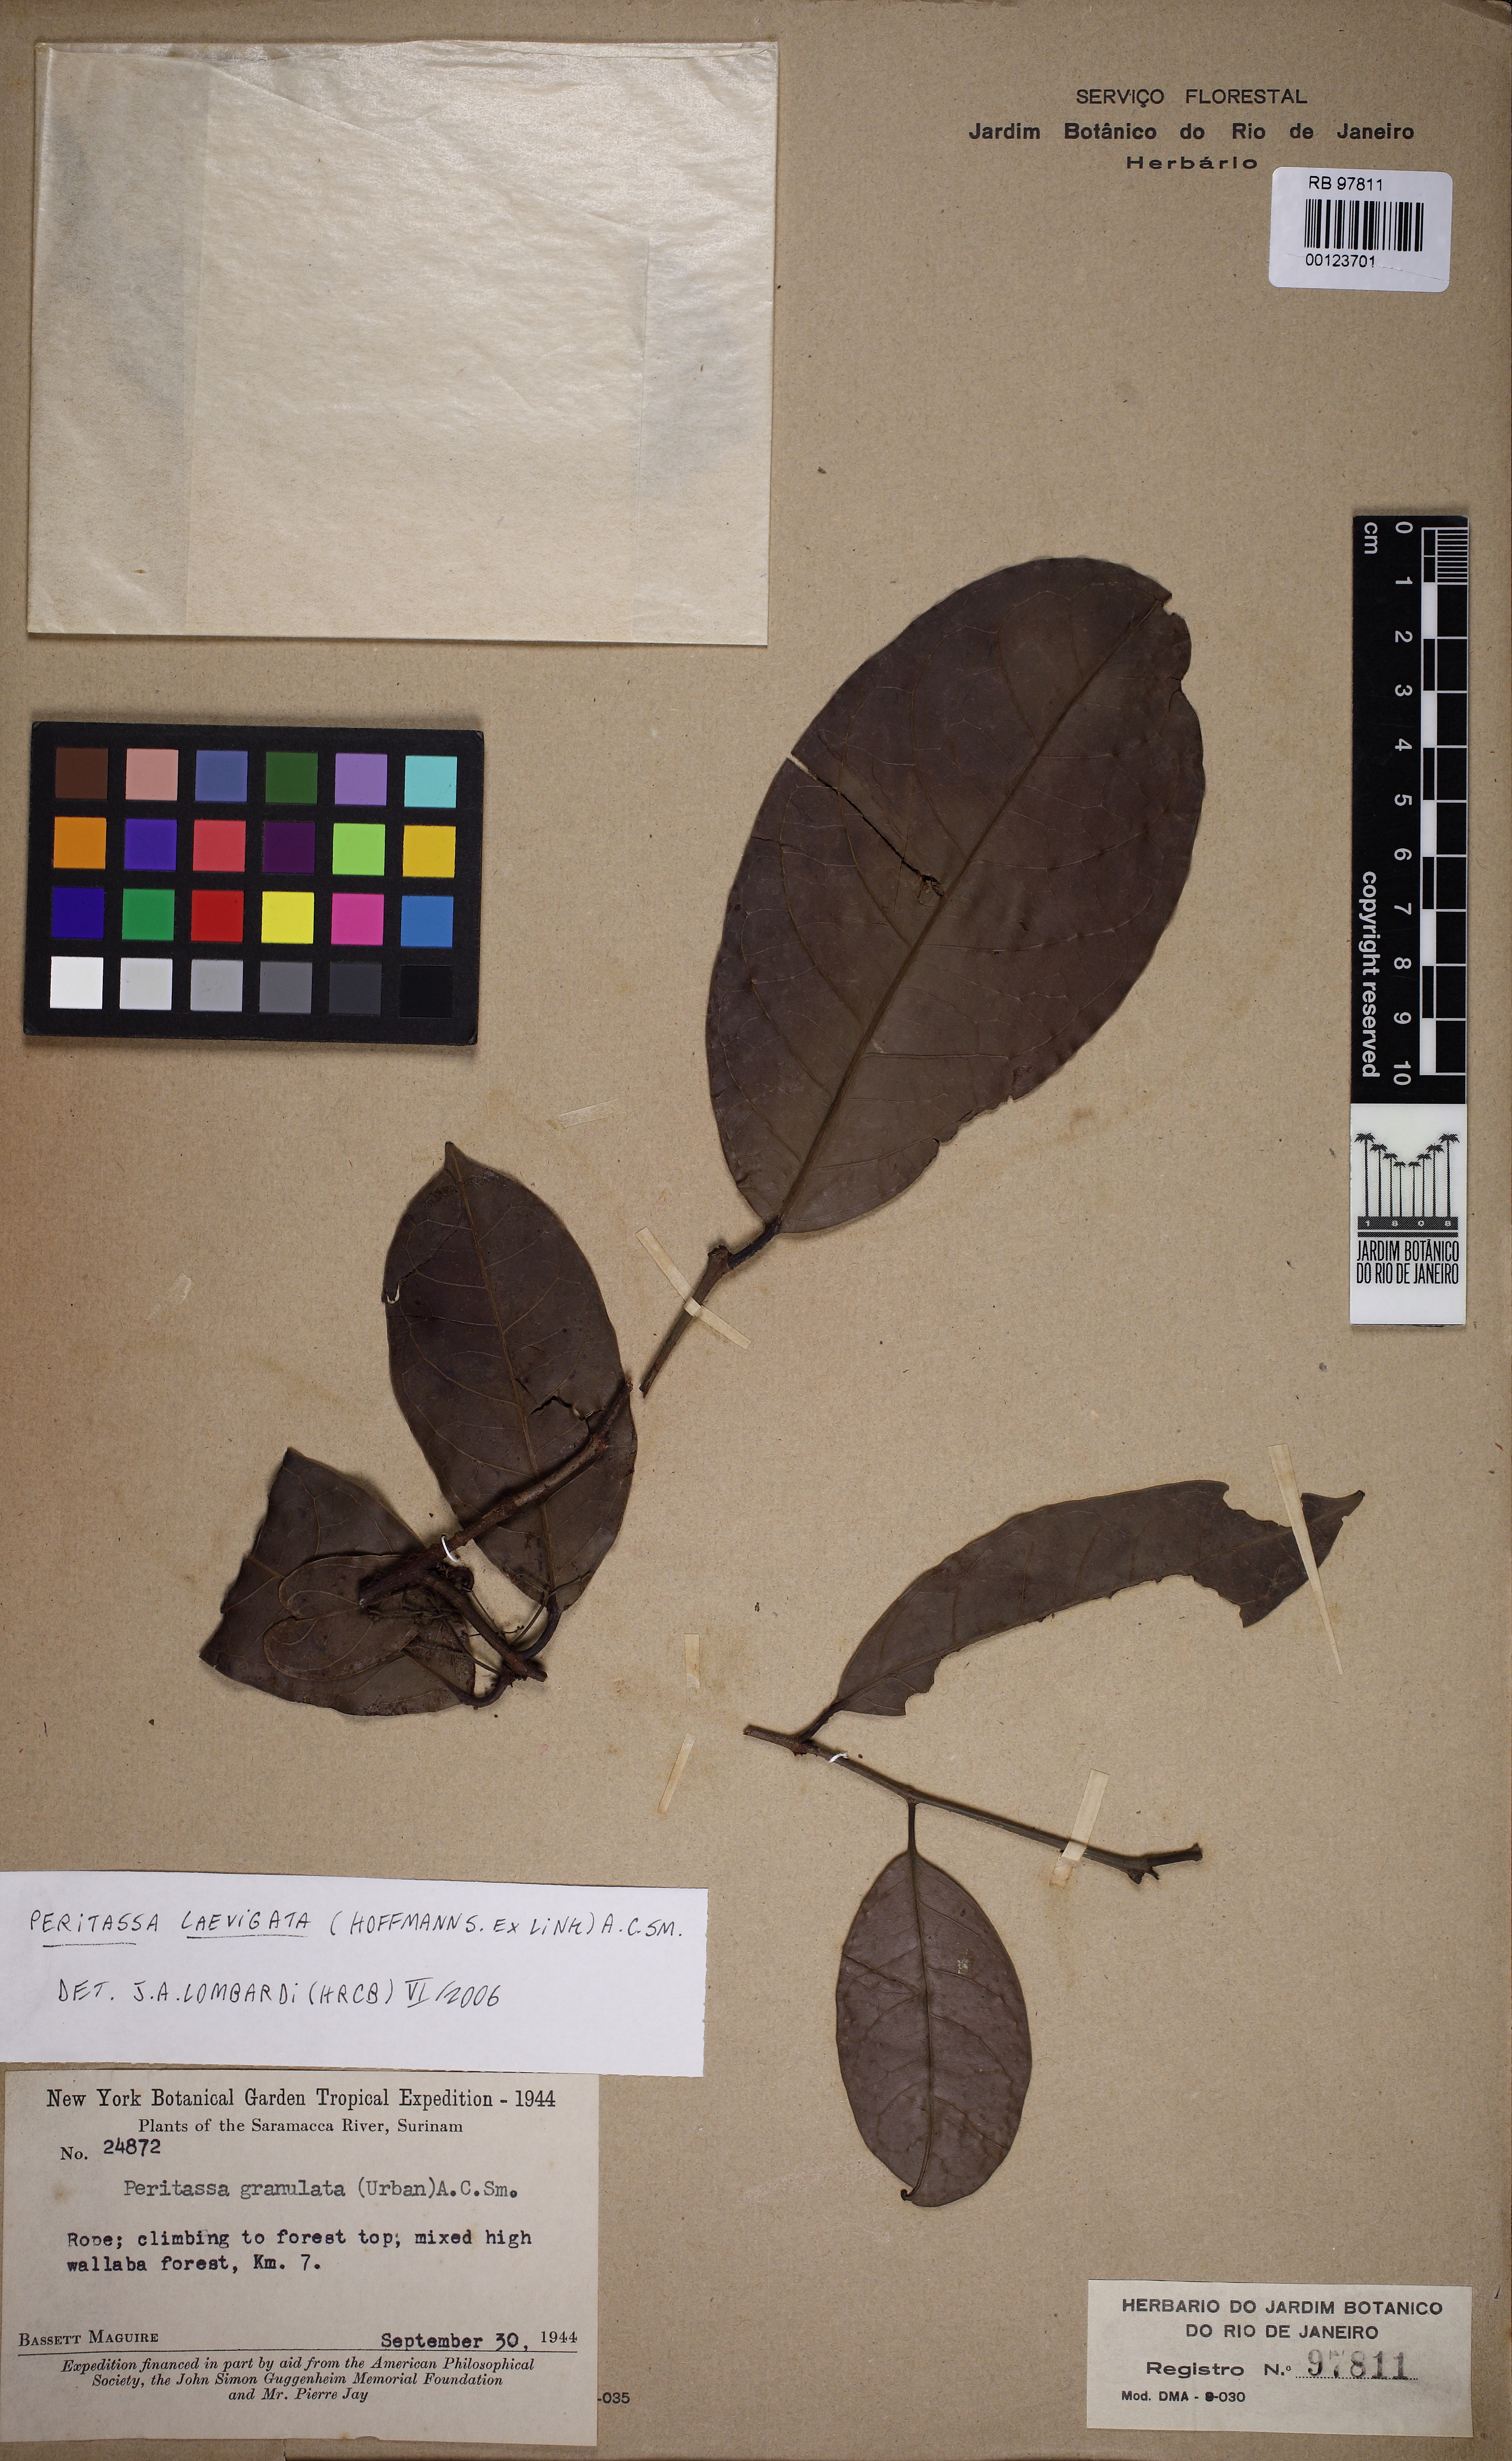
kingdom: Plantae
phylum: Tracheophyta
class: Magnoliopsida
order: Celastrales
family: Celastraceae
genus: Peritassa
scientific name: Peritassa mexiae
